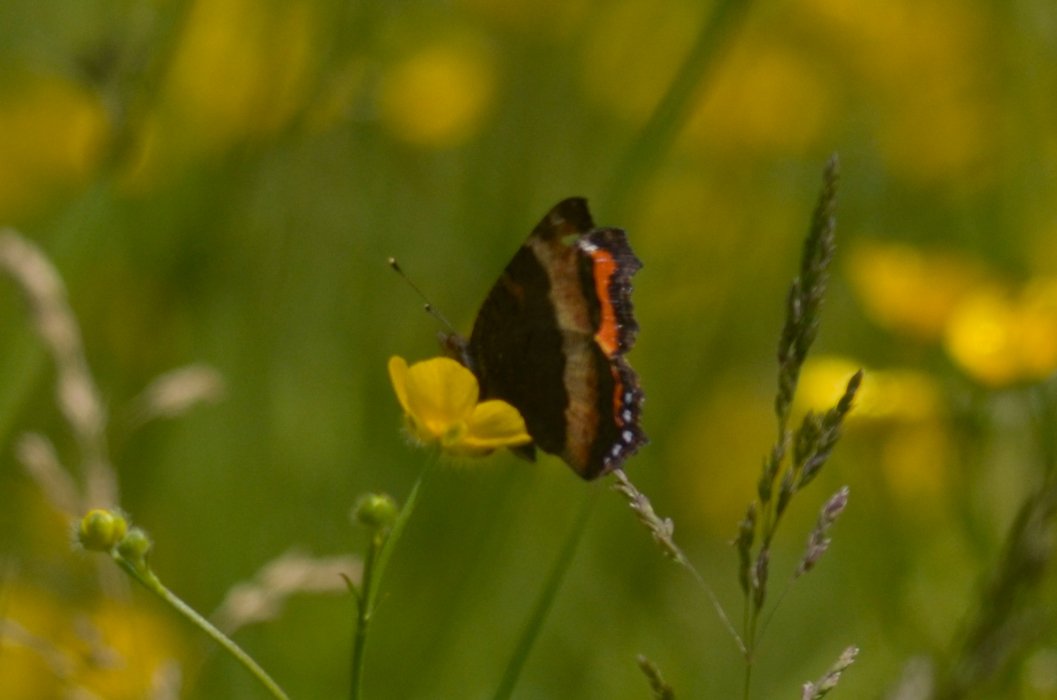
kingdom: Animalia
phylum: Arthropoda
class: Insecta
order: Lepidoptera
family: Nymphalidae
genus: Aglais
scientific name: Aglais milberti
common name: Milbert's Tortoiseshell
